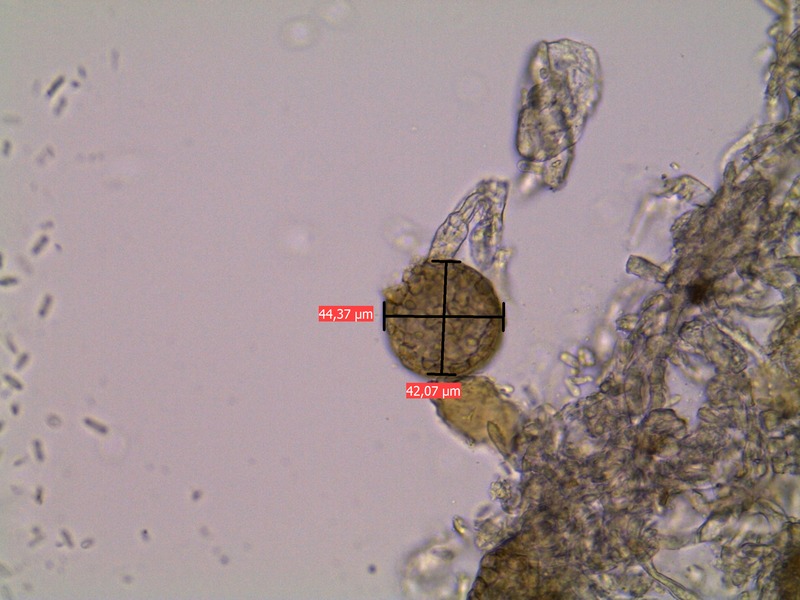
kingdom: Fungi
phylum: Ascomycota
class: Dothideomycetes
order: Pleosporales
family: Phaeosphaeriaceae
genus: Ampelomyces
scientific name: Ampelomyces quisqualis
